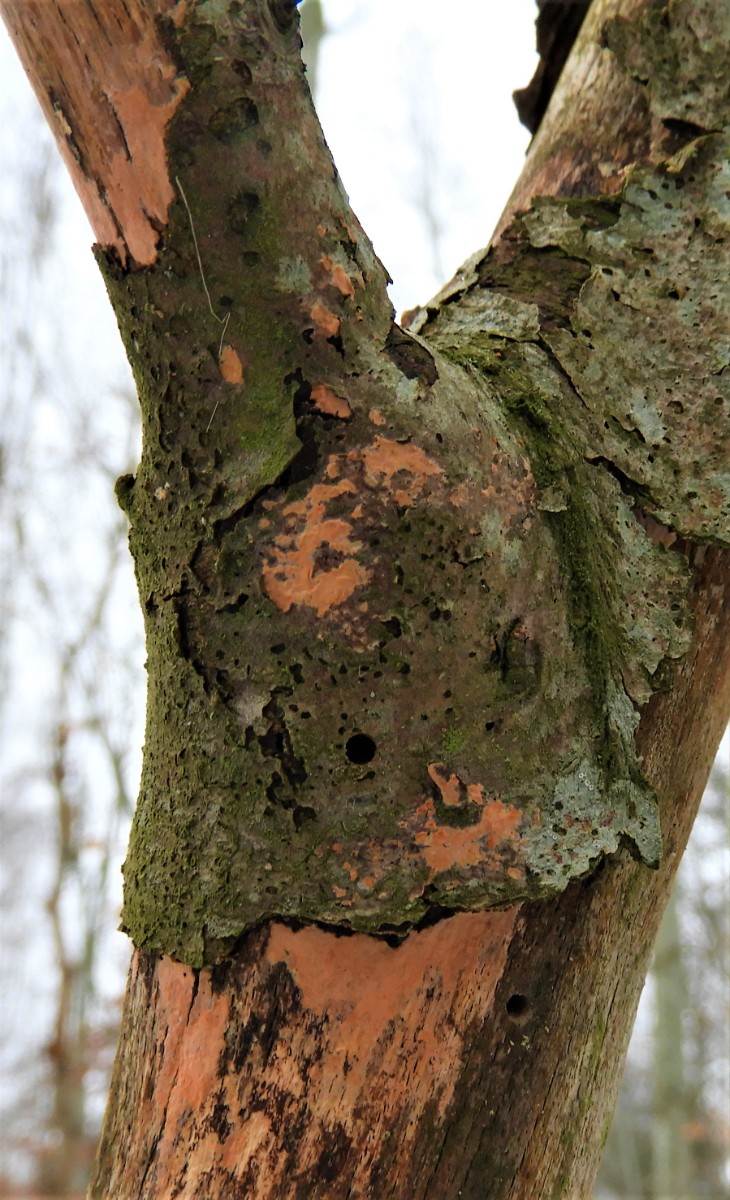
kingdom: Fungi
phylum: Basidiomycota
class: Agaricomycetes
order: Russulales
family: Peniophoraceae
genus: Peniophora
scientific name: Peniophora incarnata
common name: laksefarvet voksskind
